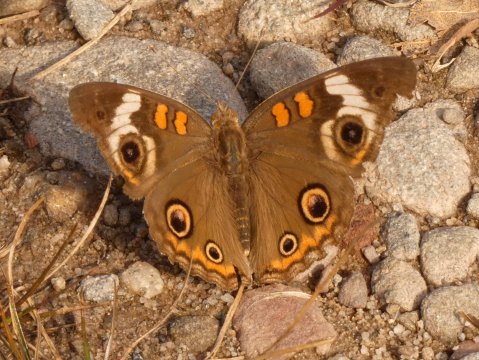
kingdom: Animalia
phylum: Arthropoda
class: Insecta
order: Lepidoptera
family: Nymphalidae
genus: Junonia
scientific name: Junonia coenia
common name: Common Buckeye
